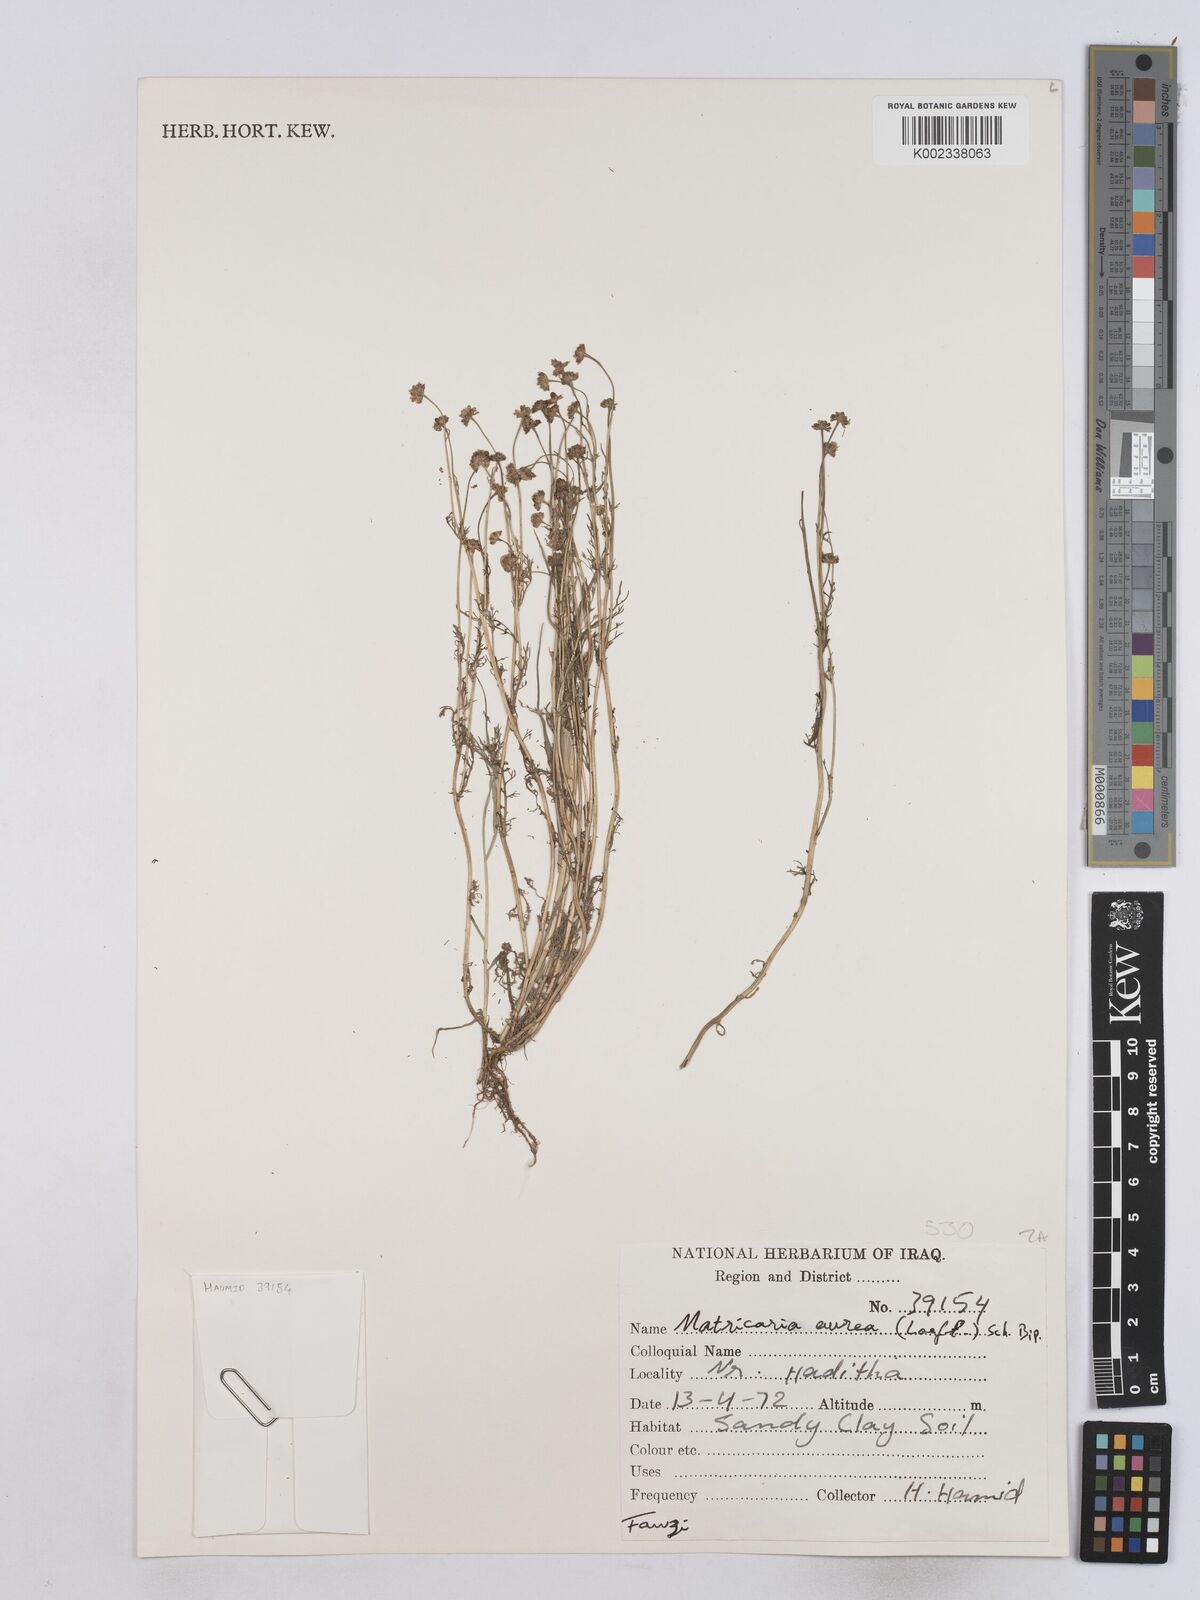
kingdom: Plantae
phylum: Tracheophyta
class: Magnoliopsida
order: Asterales
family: Asteraceae
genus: Matricaria
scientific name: Matricaria aurea
